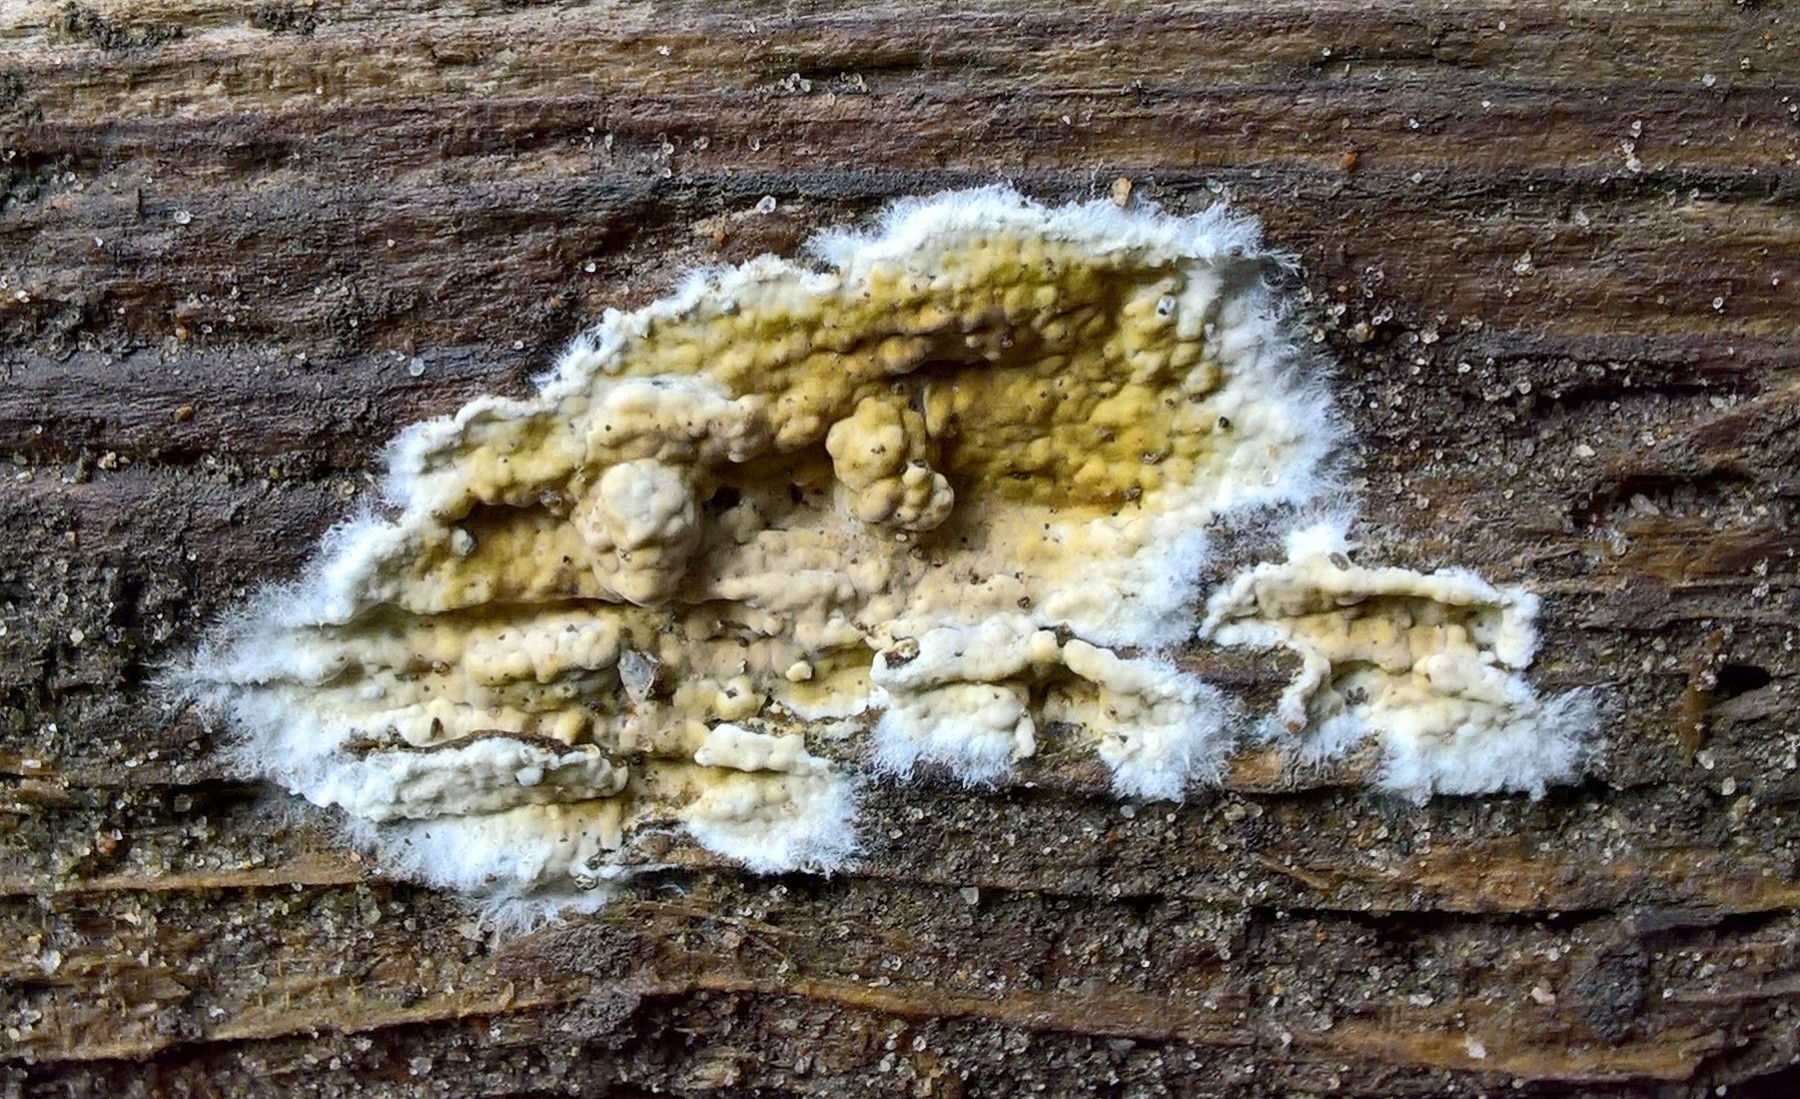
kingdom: Fungi
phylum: Basidiomycota
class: Agaricomycetes
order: Boletales
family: Coniophoraceae
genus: Coniophora
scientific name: Coniophora puteana
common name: gul tømmersvamp
